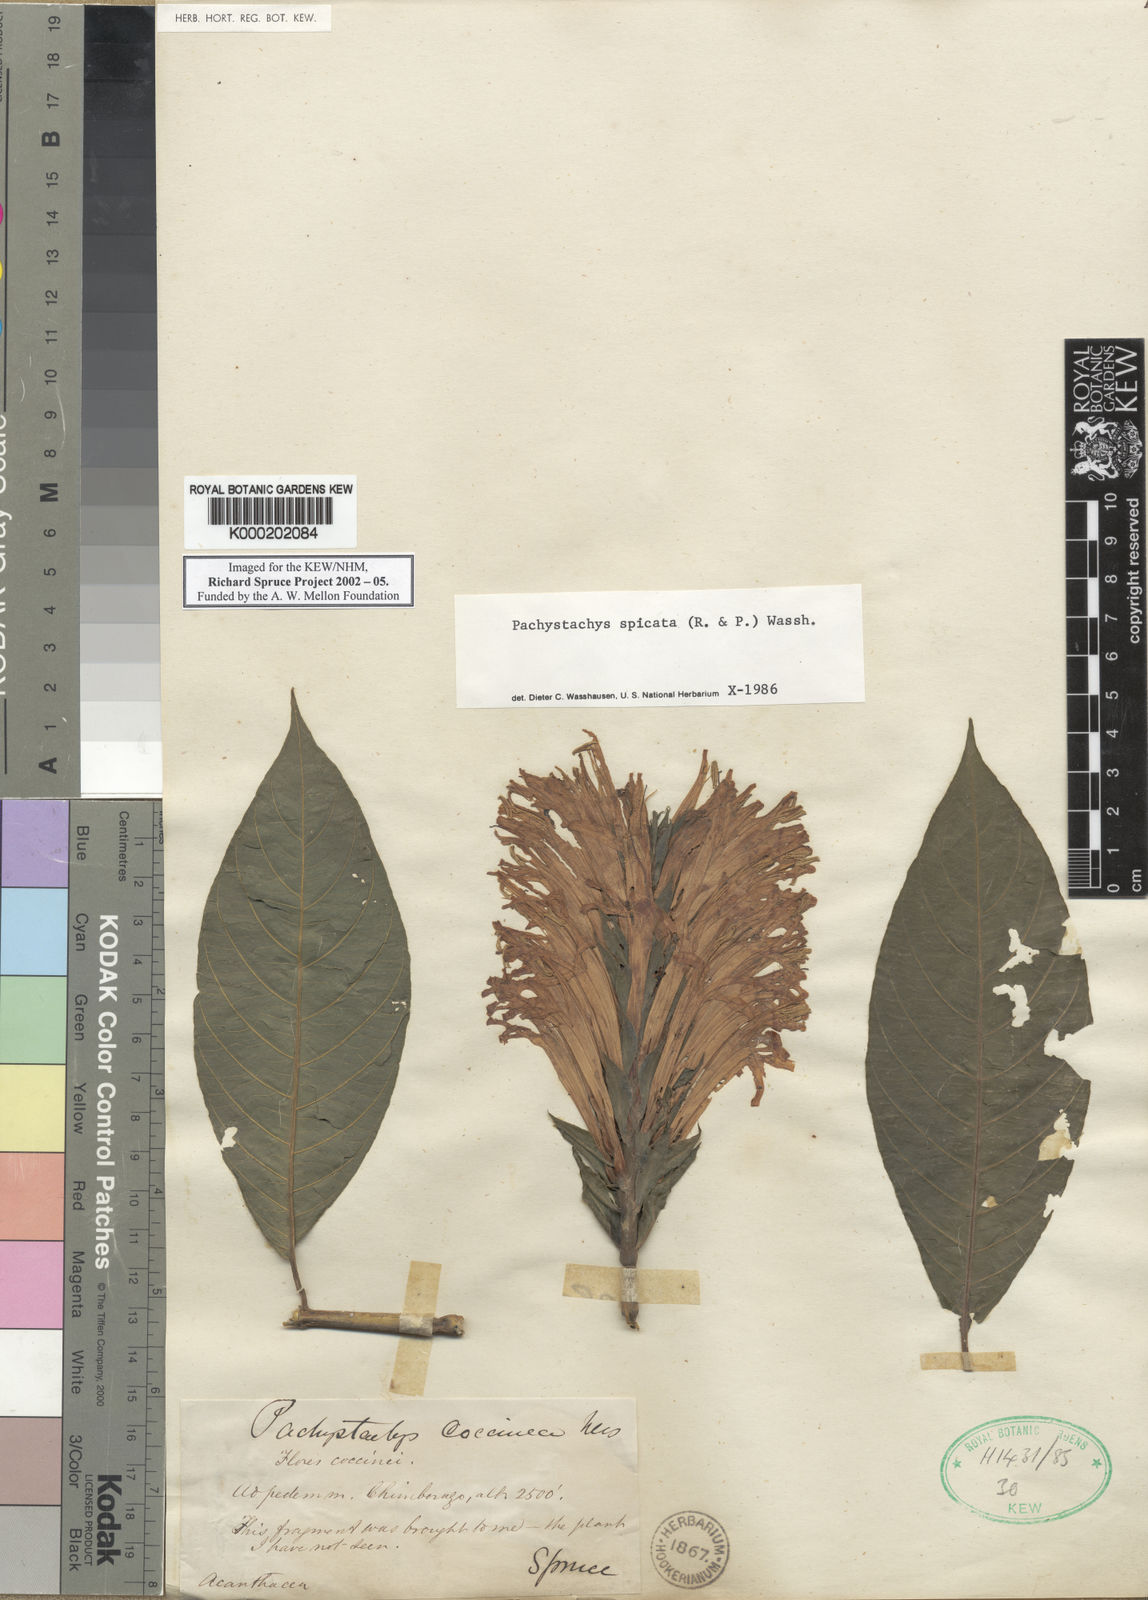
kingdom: Plantae
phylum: Tracheophyta
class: Magnoliopsida
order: Lamiales
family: Acanthaceae
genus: Pachystachys
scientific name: Pachystachys spicata
